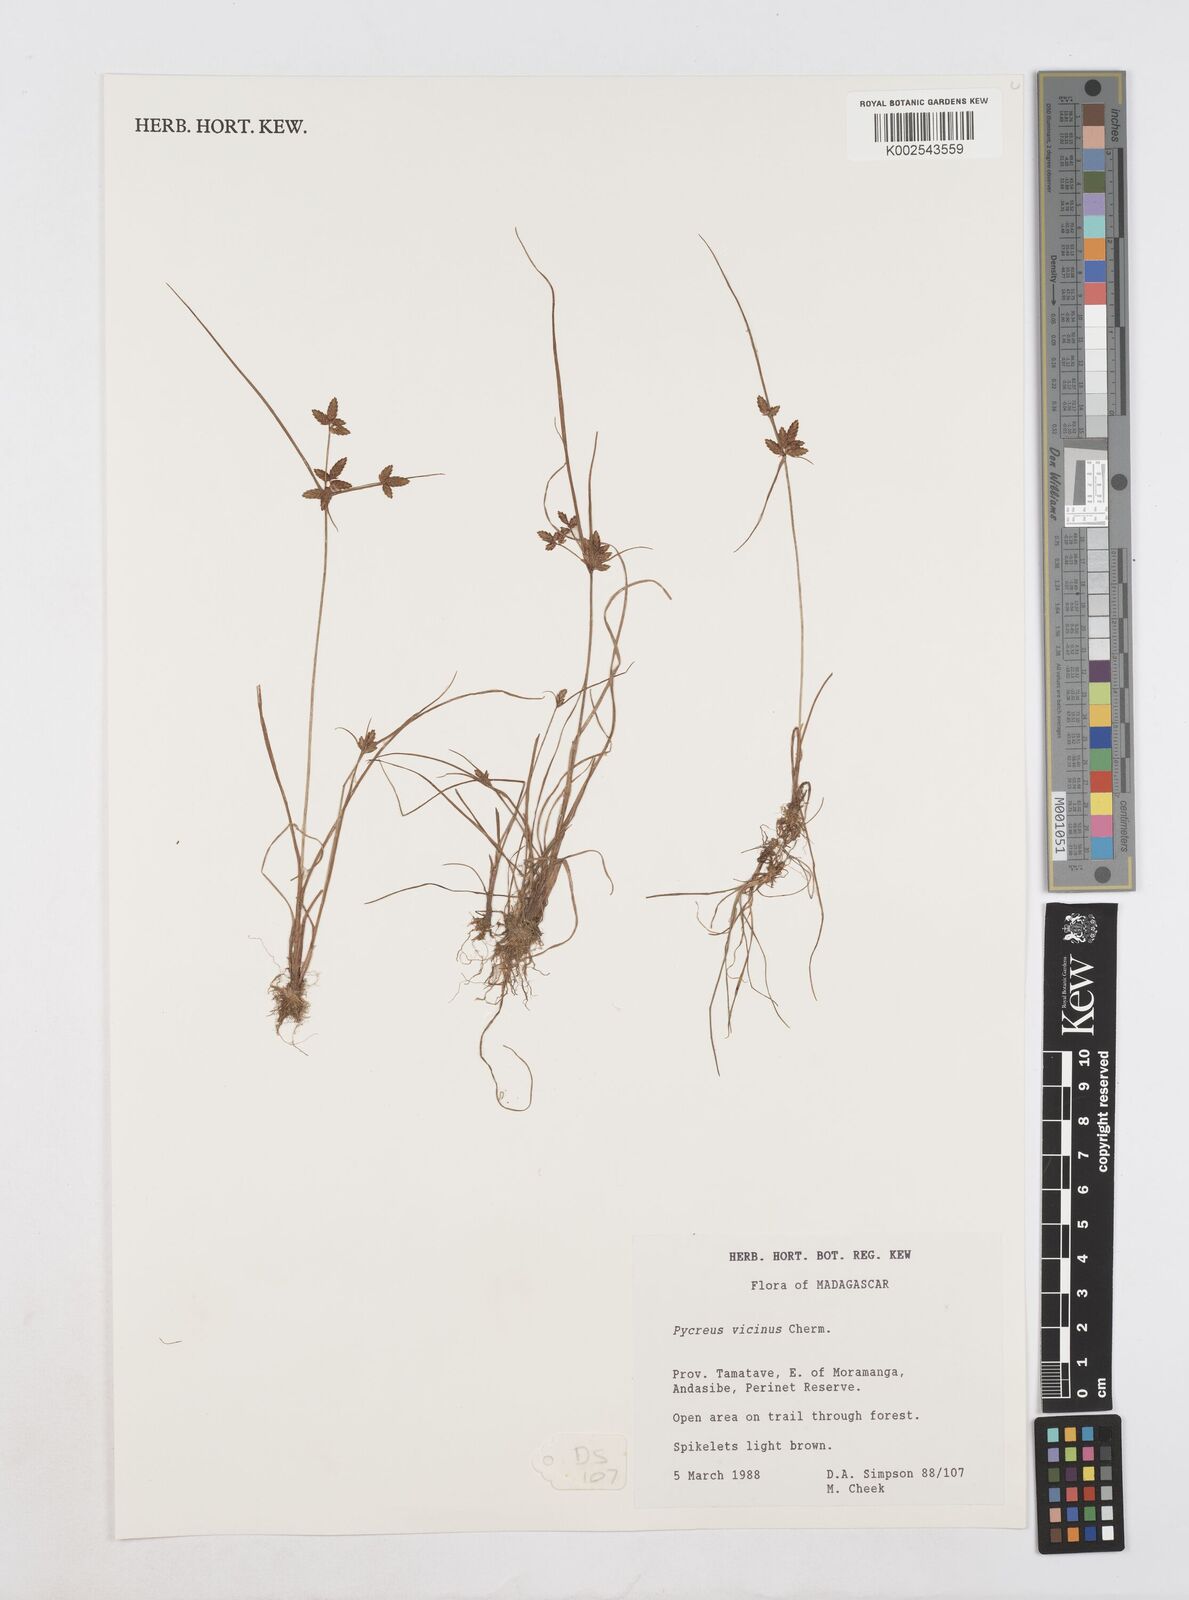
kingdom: Plantae
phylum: Tracheophyta
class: Liliopsida
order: Poales
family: Cyperaceae
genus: Cyperus
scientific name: Cyperus
